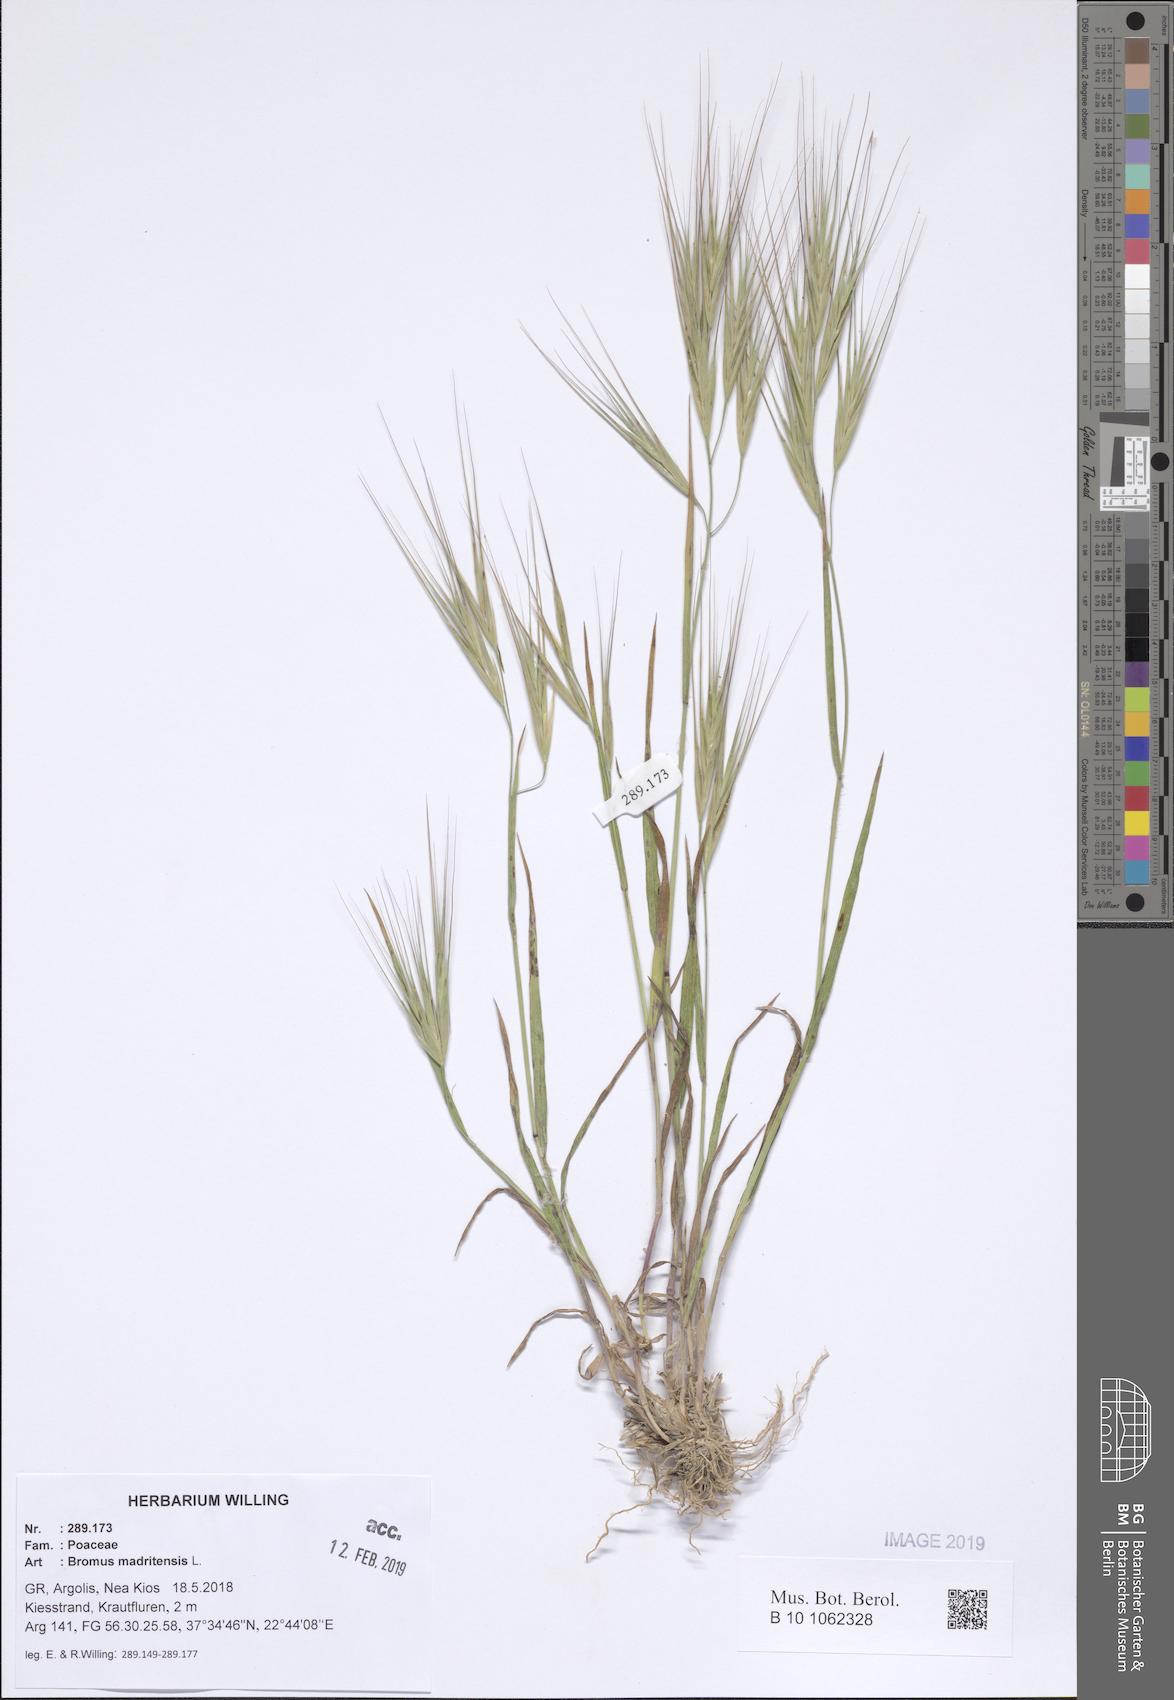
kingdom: Plantae
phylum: Tracheophyta
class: Liliopsida
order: Poales
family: Poaceae
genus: Bromus
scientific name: Bromus madritensis
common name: Compact brome
